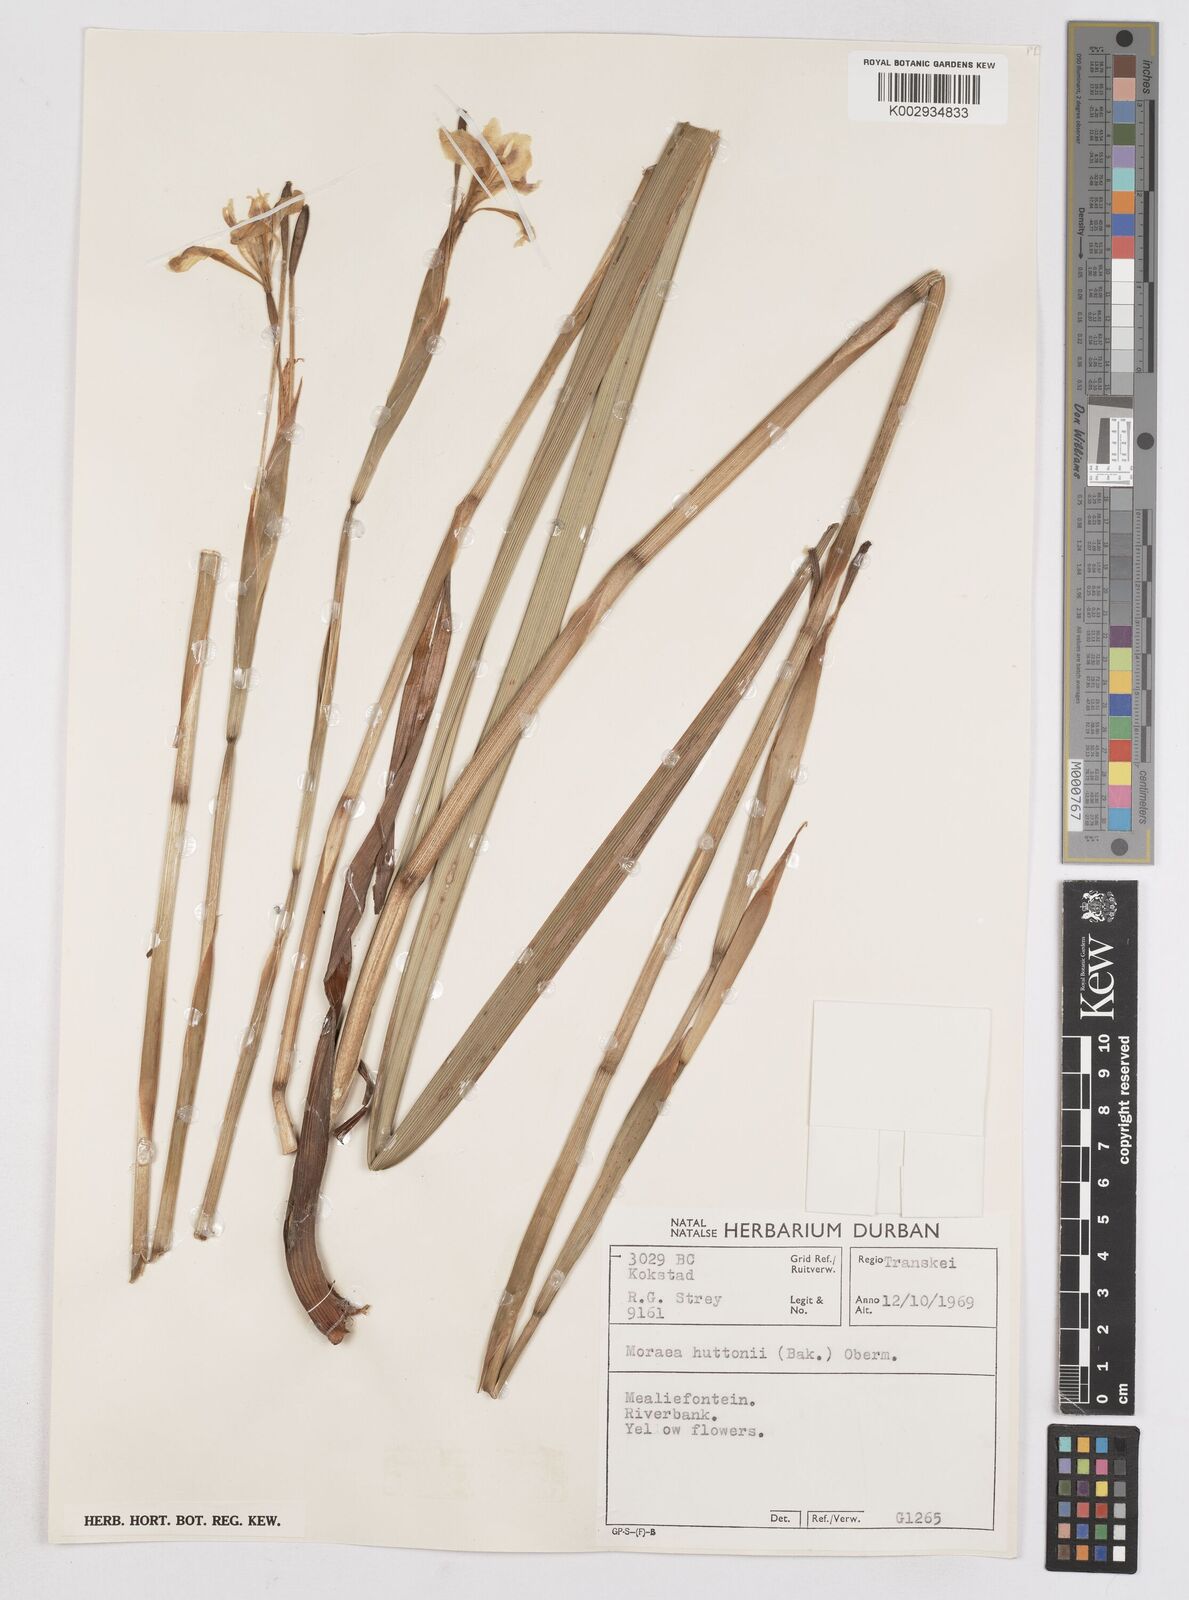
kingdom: Plantae
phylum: Tracheophyta
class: Liliopsida
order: Asparagales
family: Iridaceae
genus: Moraea
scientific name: Moraea huttonii
